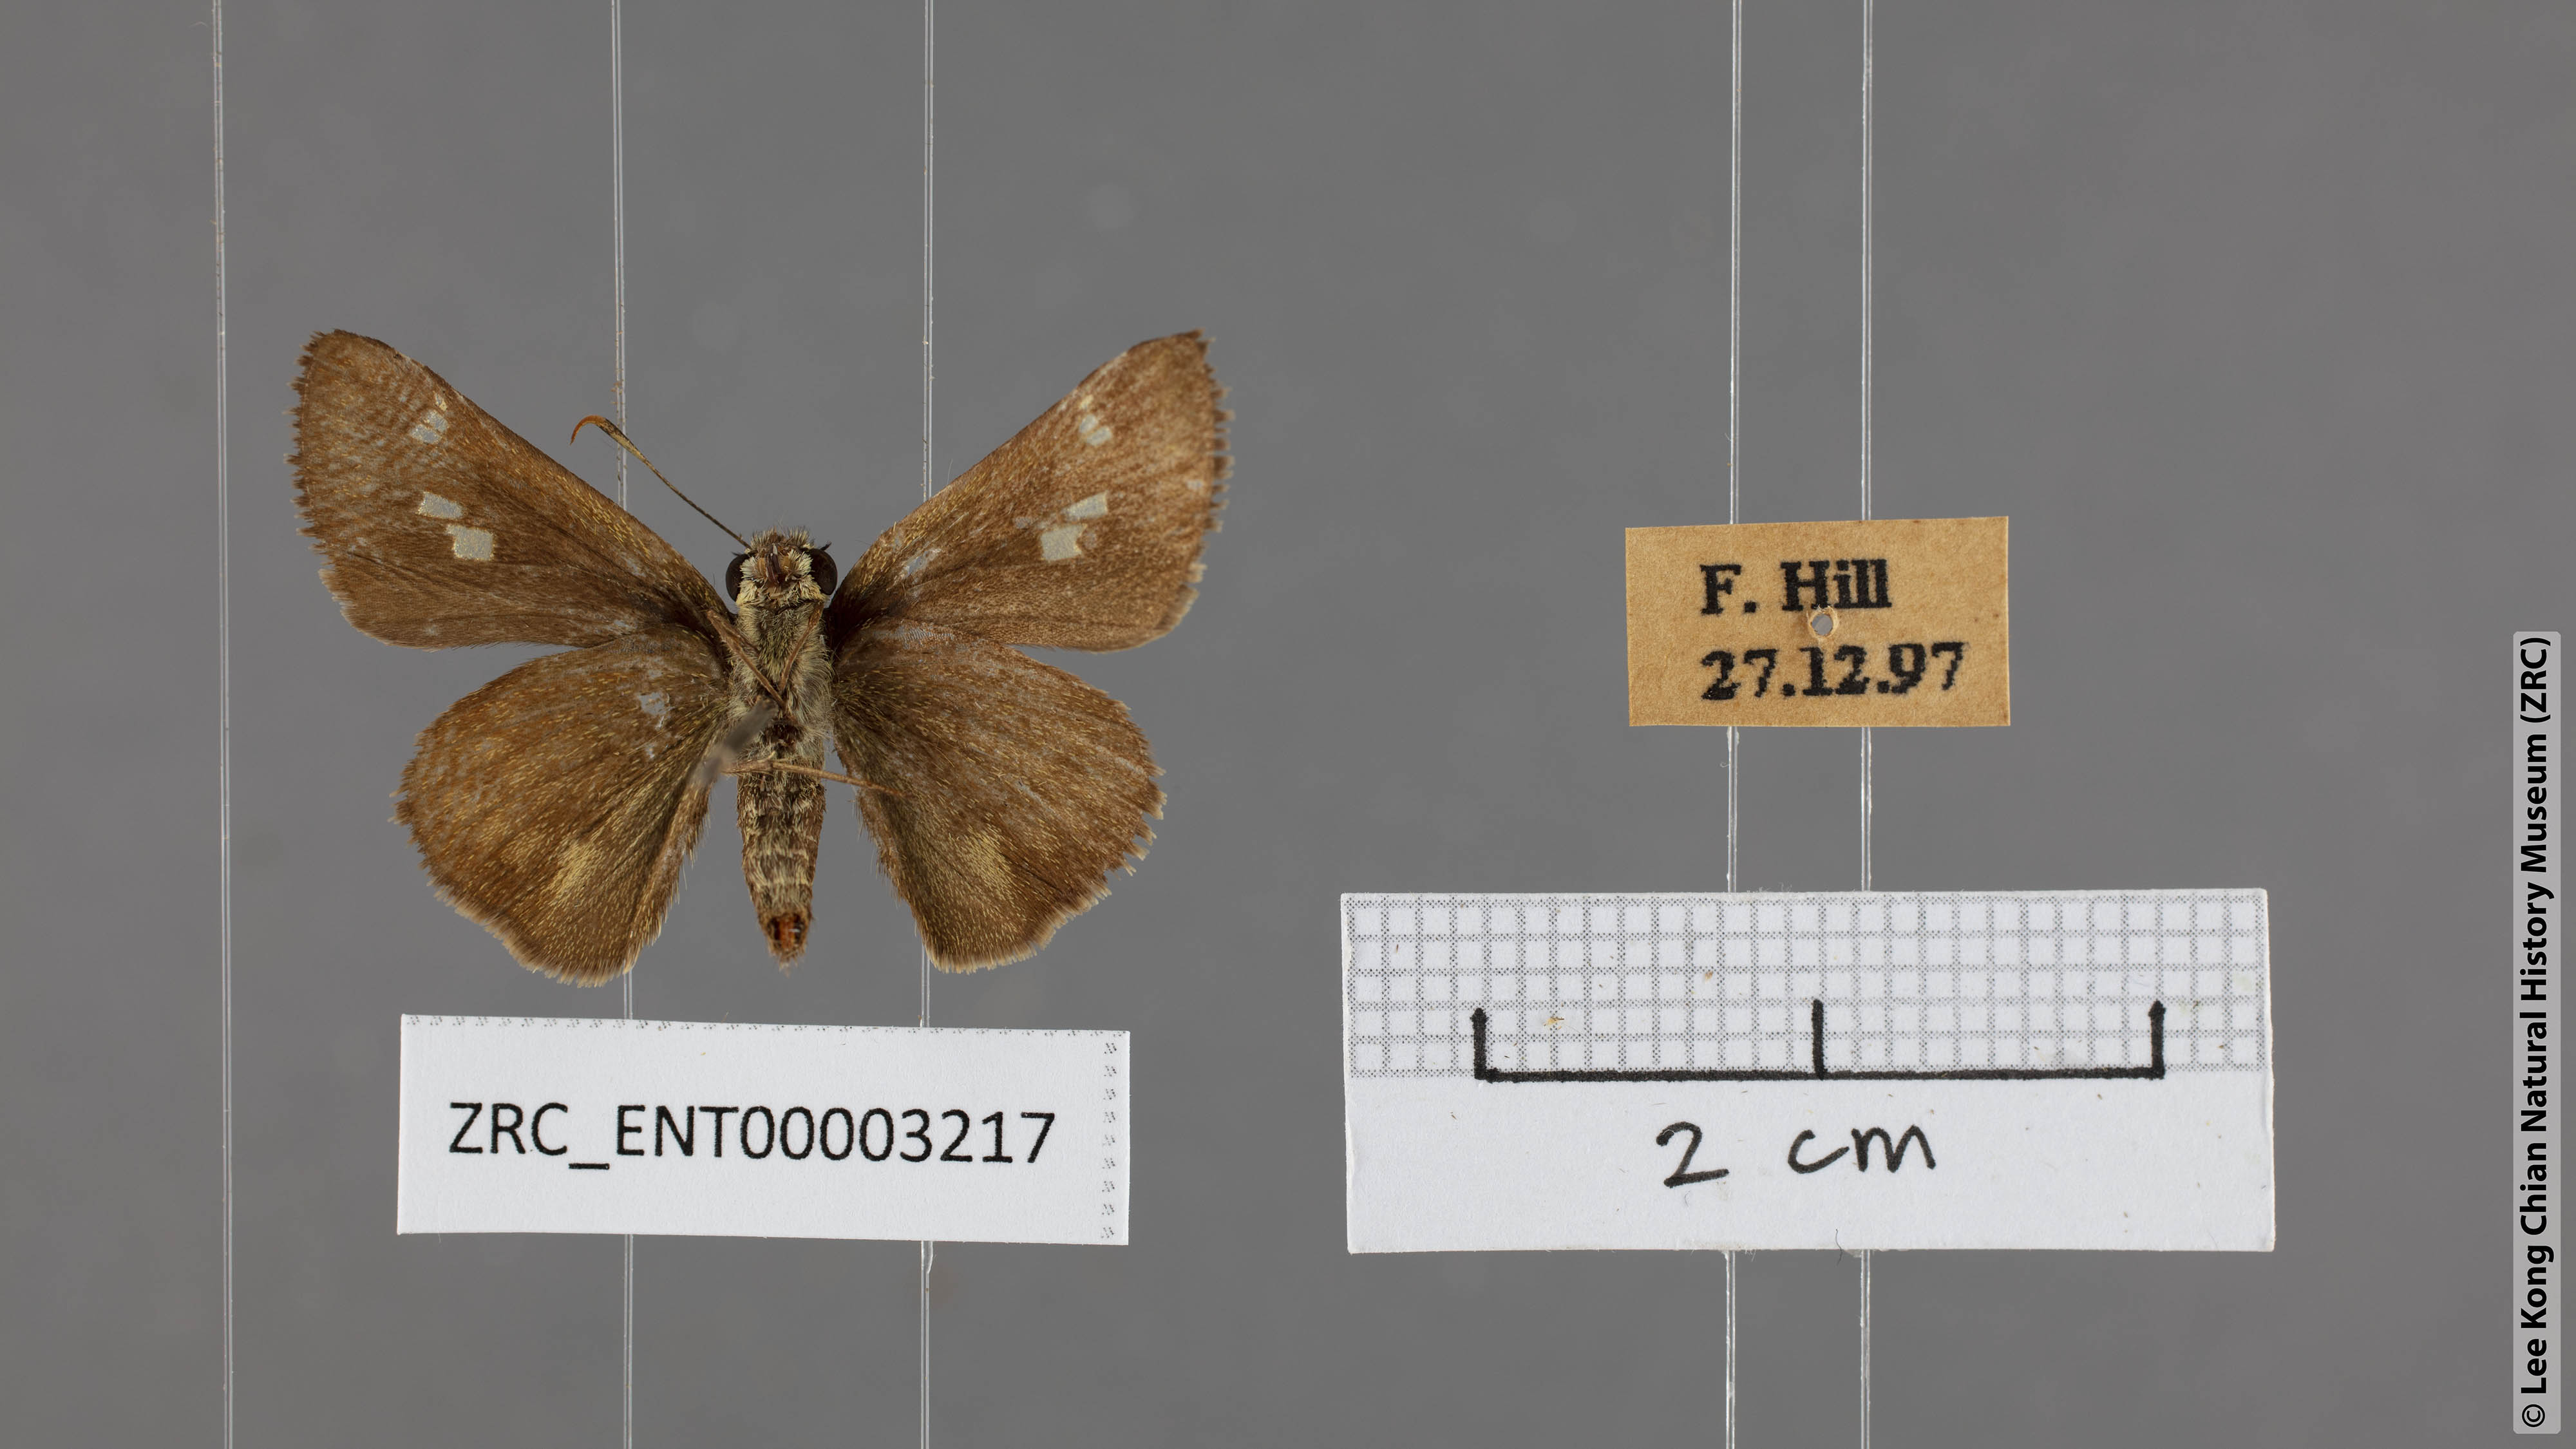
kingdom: Animalia
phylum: Arthropoda
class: Insecta
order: Lepidoptera
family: Hesperiidae
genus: Halpe
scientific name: Halpe clara
